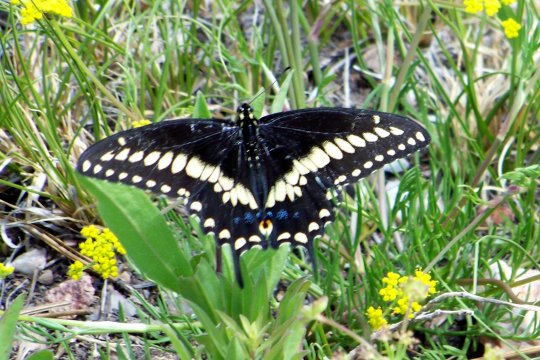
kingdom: Animalia
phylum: Arthropoda
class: Insecta
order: Lepidoptera
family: Papilionidae
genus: Papilio
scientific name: Papilio machaon
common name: Old World Swallowtail
